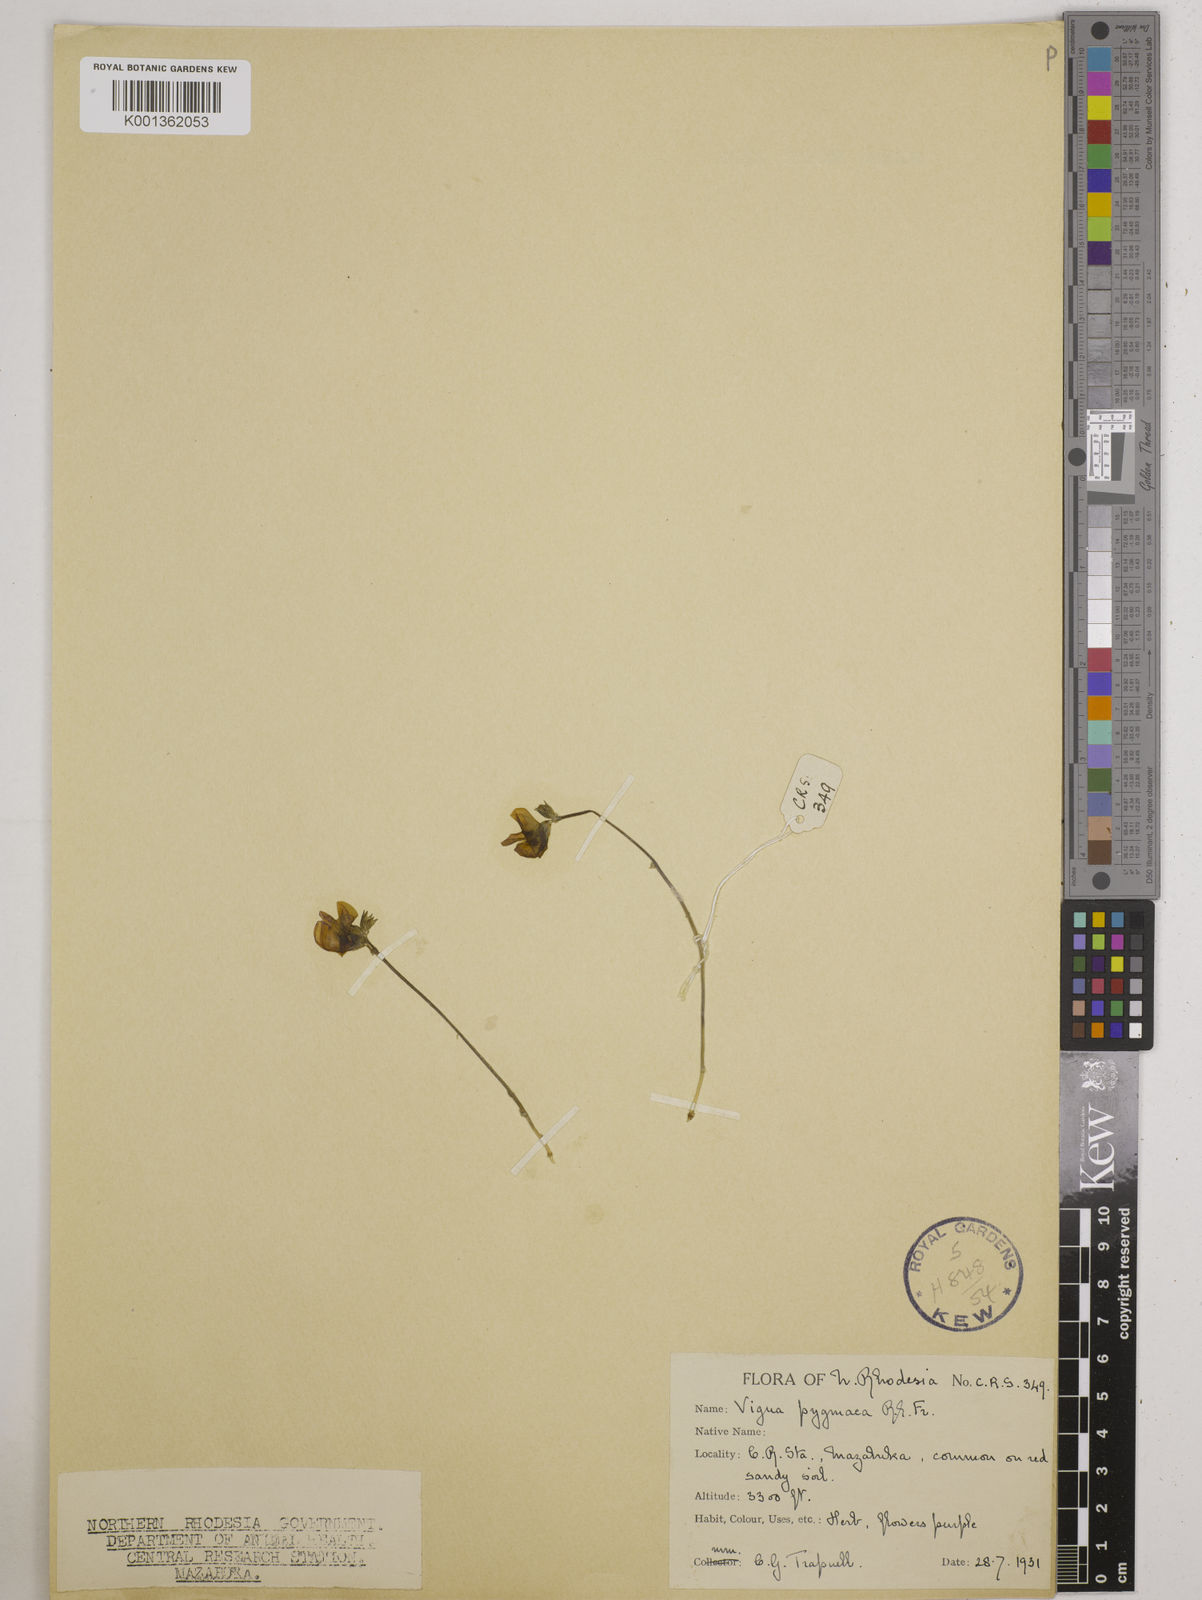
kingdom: Plantae
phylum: Tracheophyta
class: Magnoliopsida
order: Fabales
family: Fabaceae
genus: Vigna
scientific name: Vigna pygmaea
